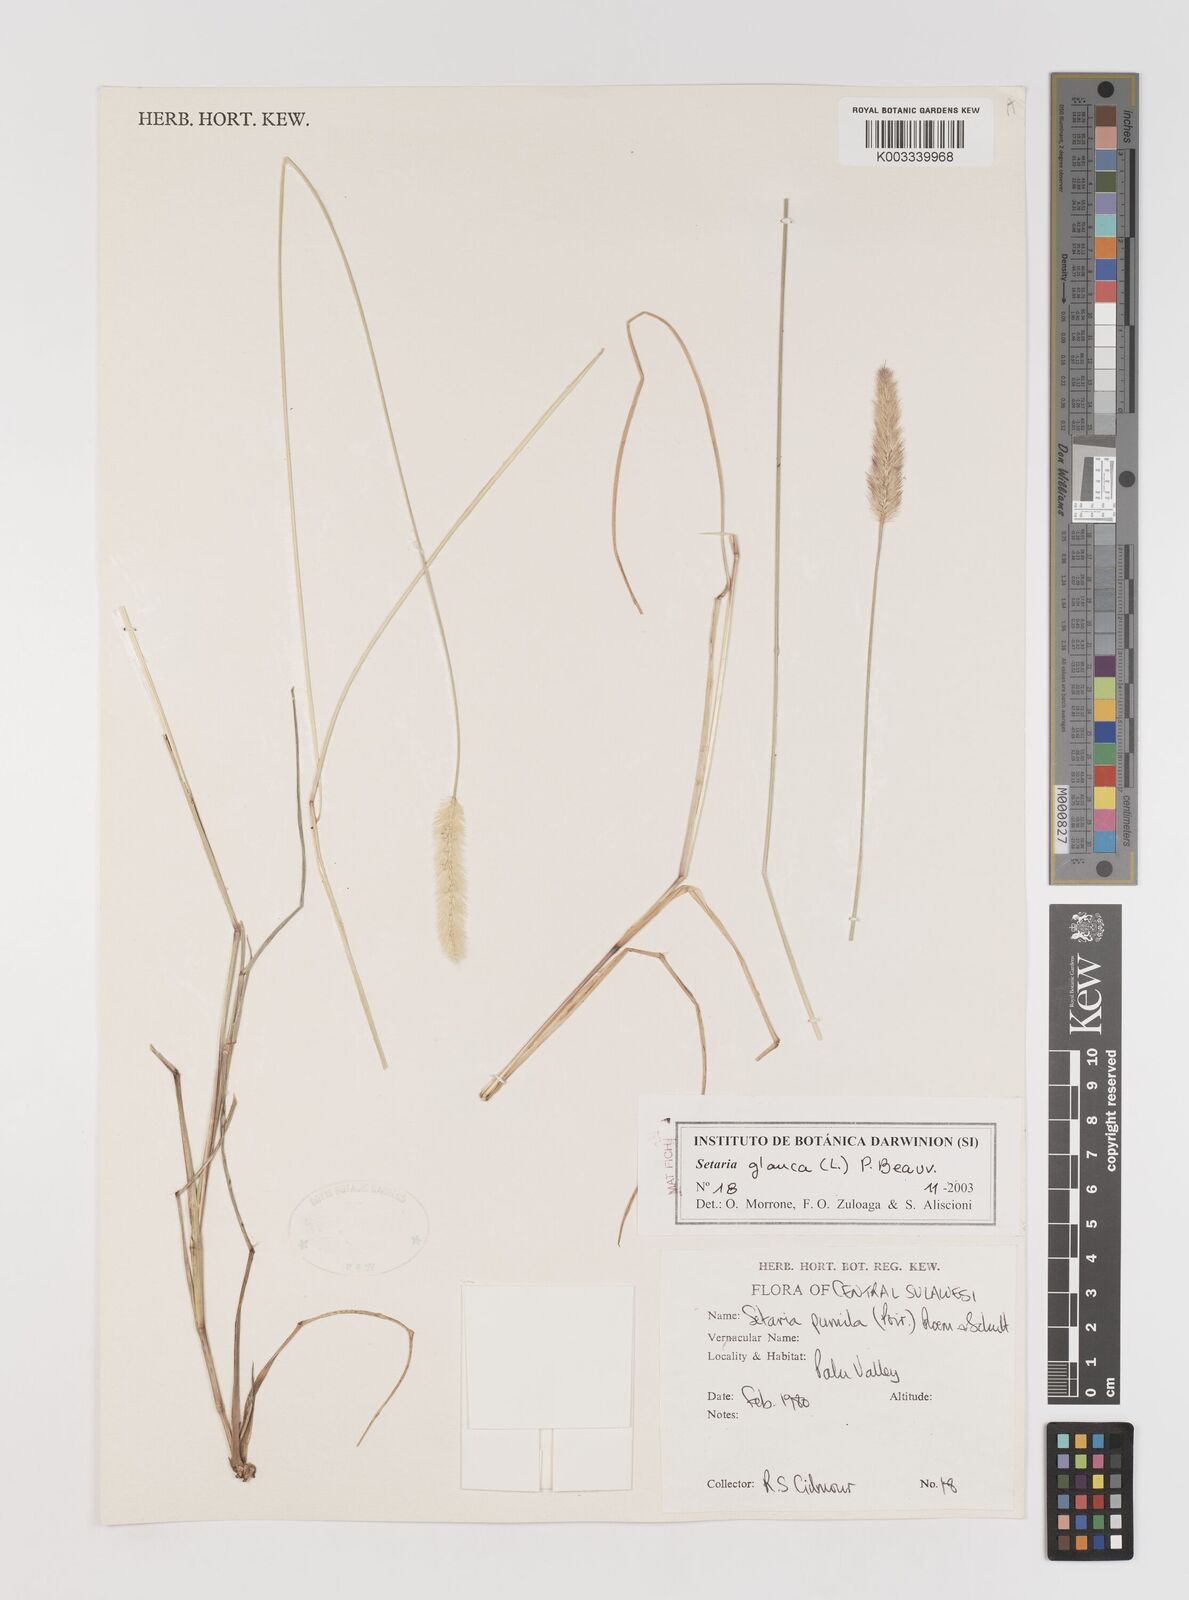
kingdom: Plantae
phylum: Tracheophyta
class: Liliopsida
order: Poales
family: Poaceae
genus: Setaria
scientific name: Setaria parviflora
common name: Knotroot bristle-grass
